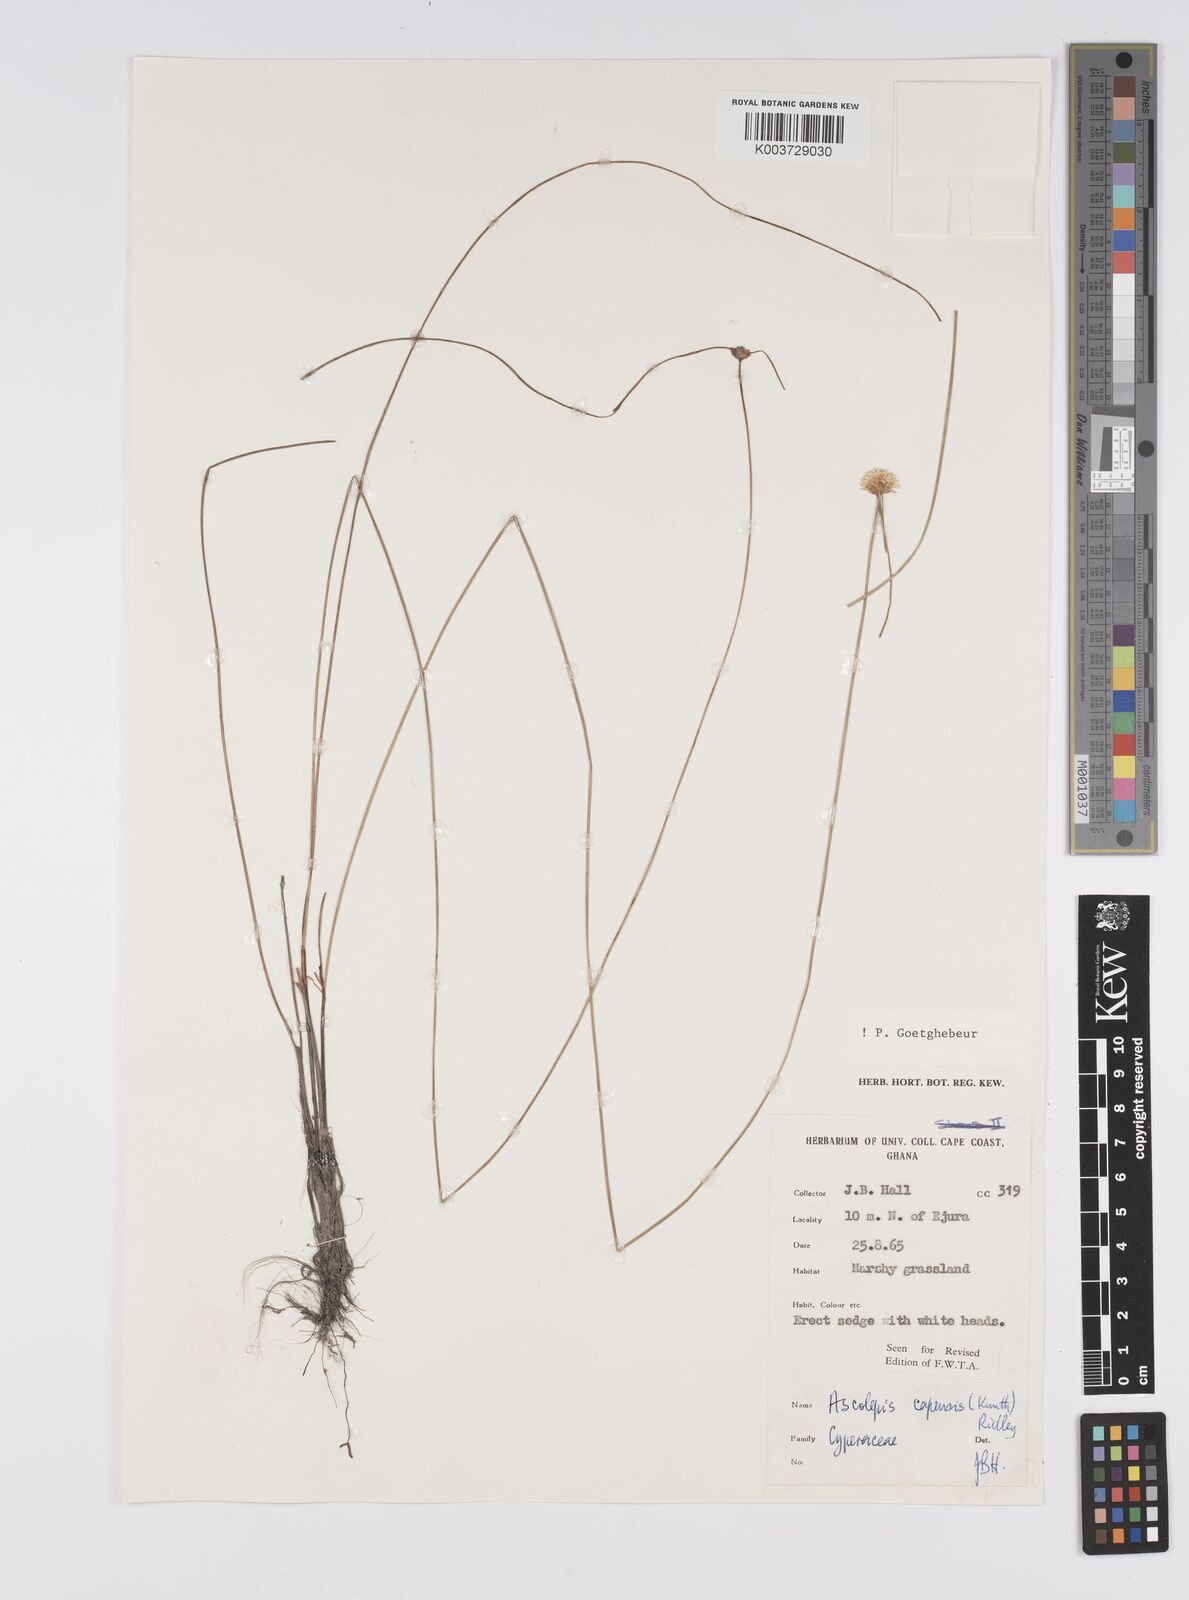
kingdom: Plantae
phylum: Tracheophyta
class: Liliopsida
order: Poales
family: Cyperaceae
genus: Ascolepis
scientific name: Ascolepis
